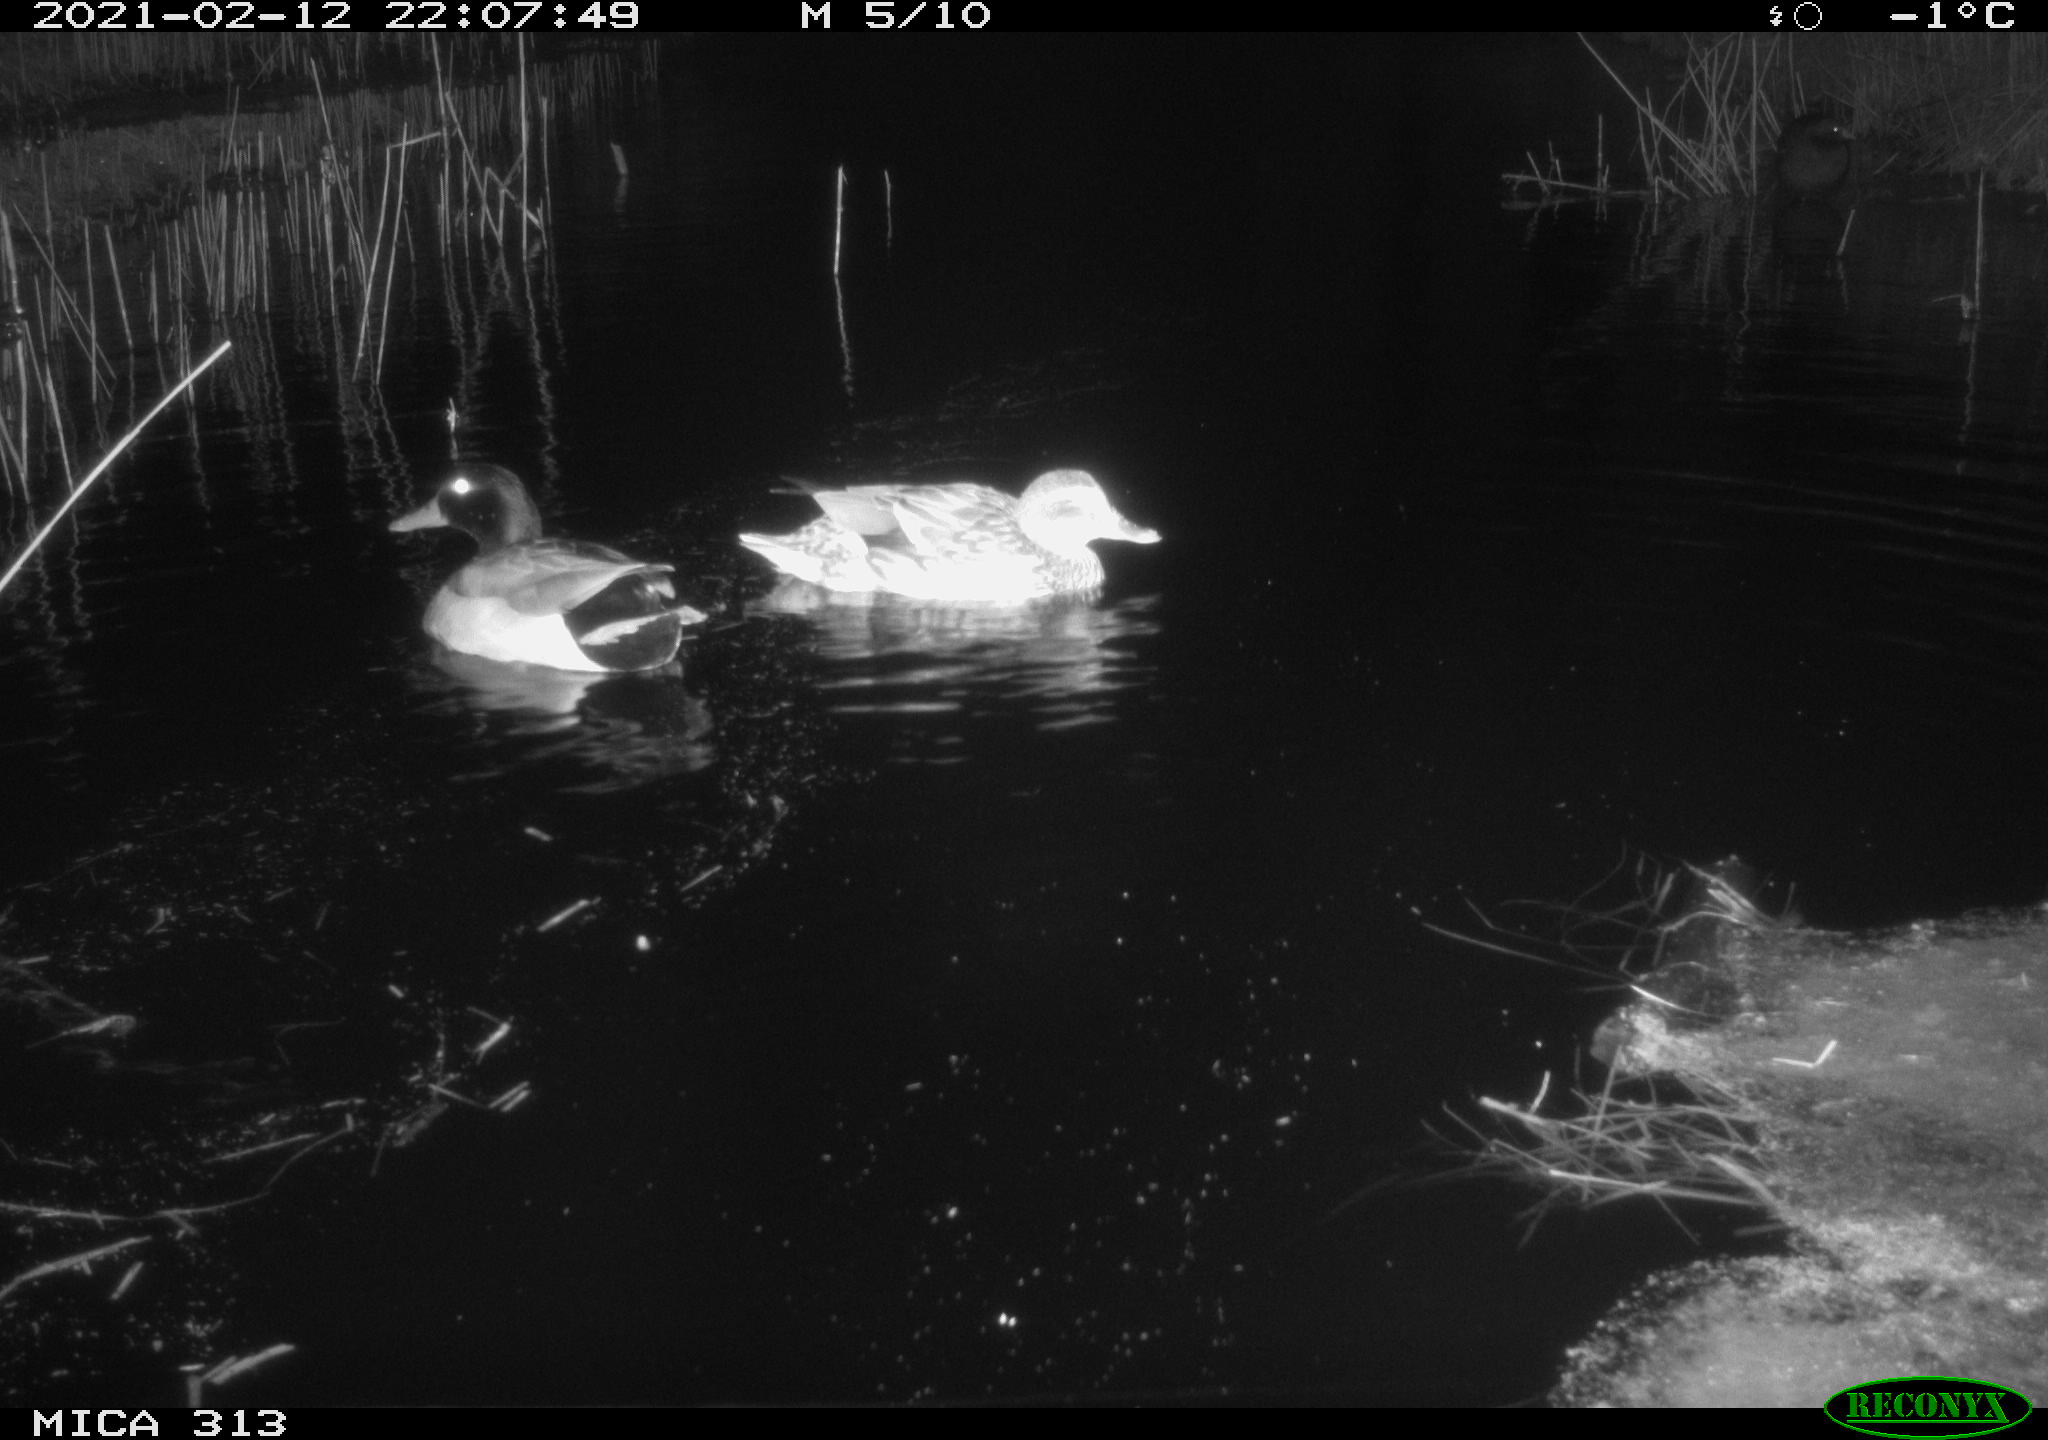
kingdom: Animalia
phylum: Chordata
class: Aves
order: Anseriformes
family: Anatidae
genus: Anas
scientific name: Anas
